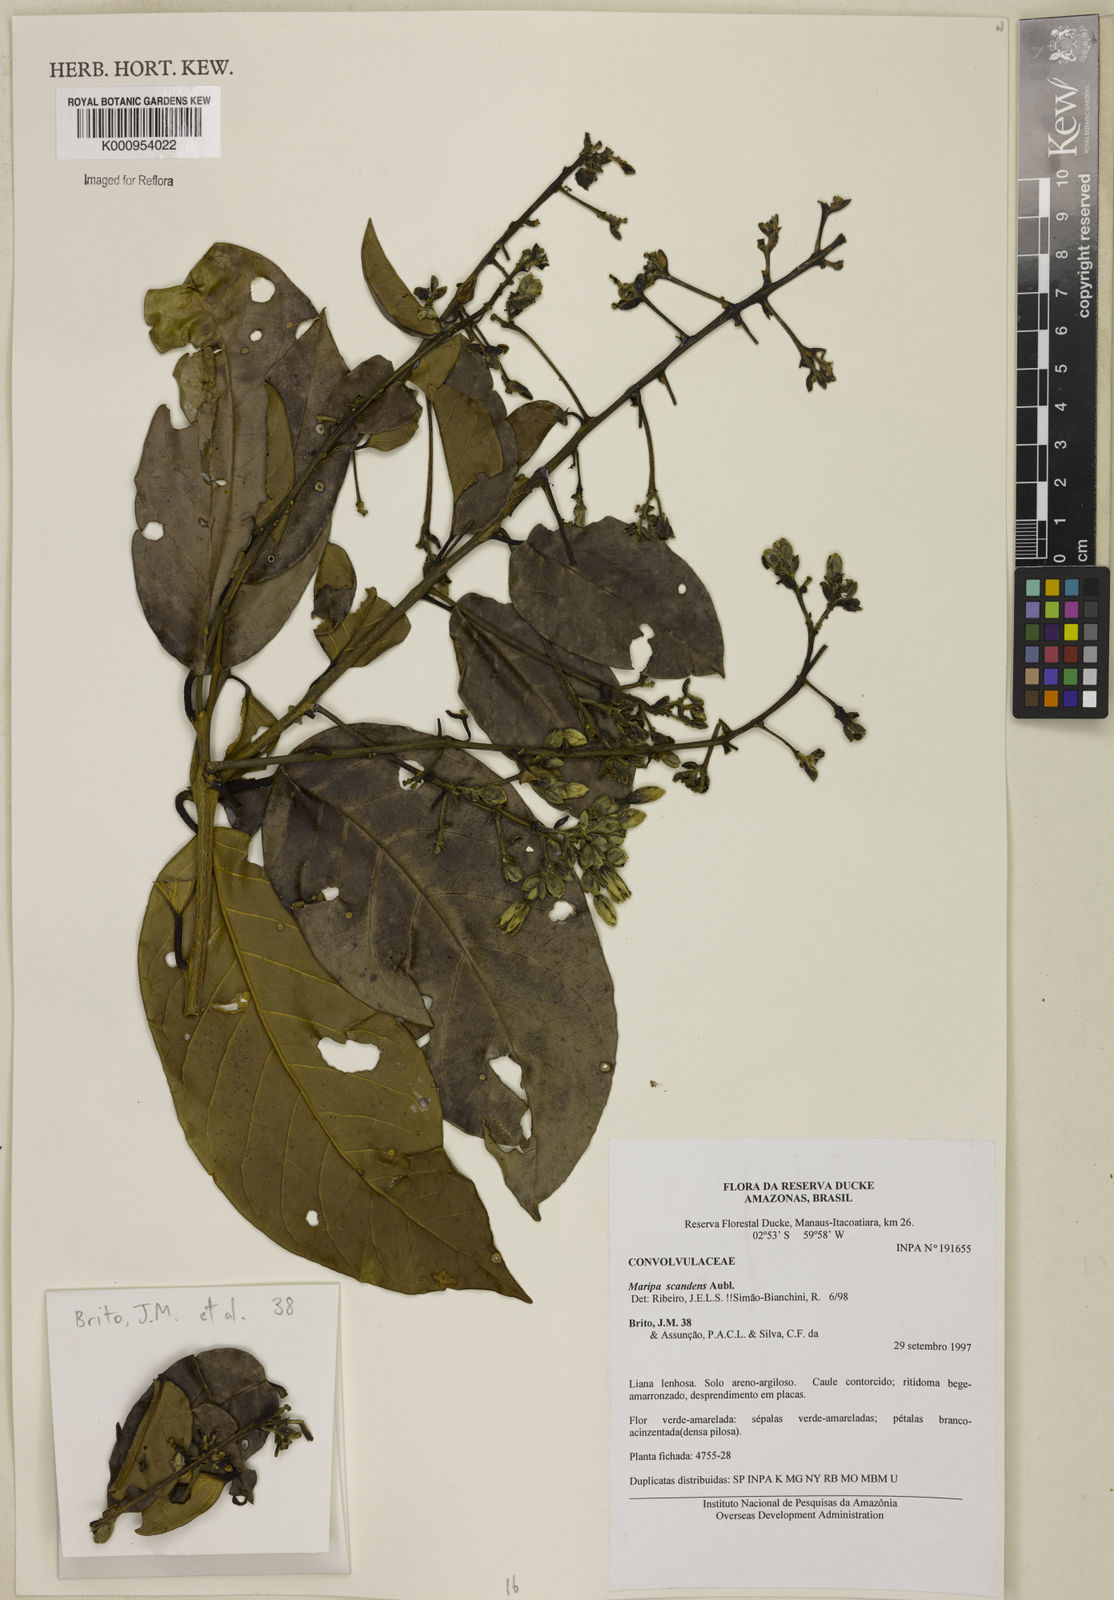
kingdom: Plantae
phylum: Tracheophyta
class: Magnoliopsida
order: Solanales
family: Convolvulaceae
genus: Maripa
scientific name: Maripa scandens
